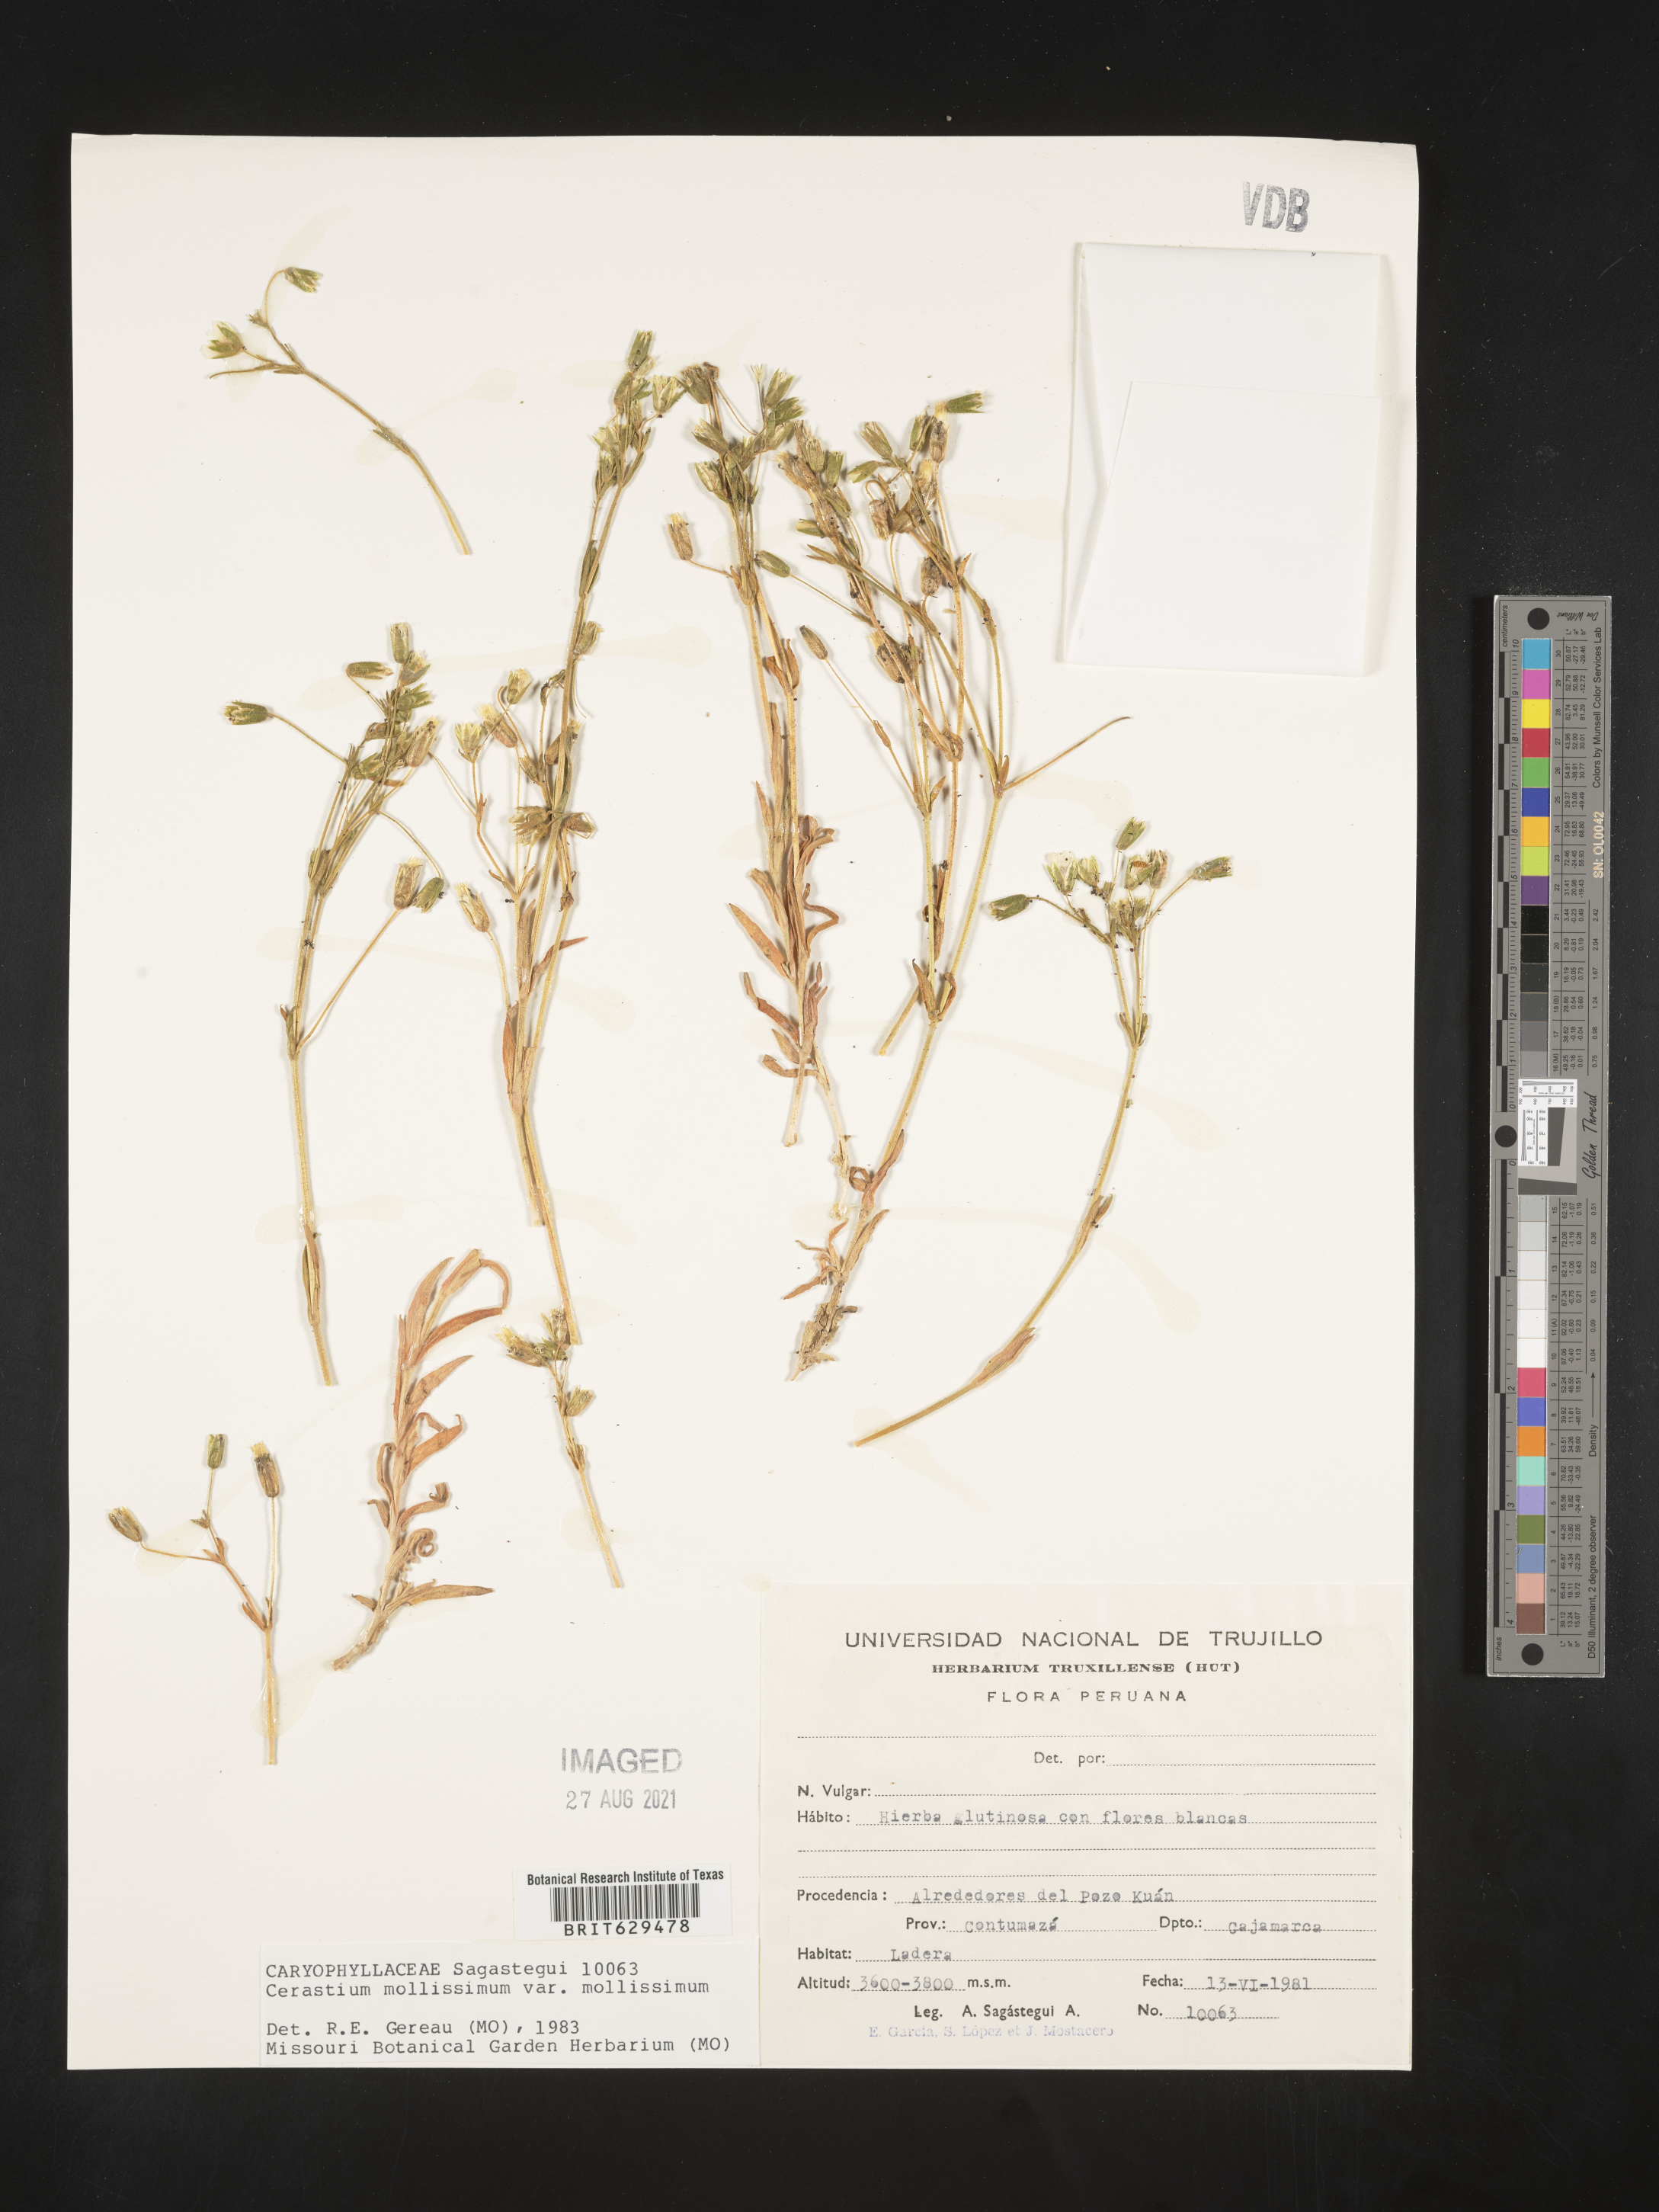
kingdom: Plantae
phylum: Tracheophyta
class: Magnoliopsida
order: Caryophyllales
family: Caryophyllaceae
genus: Cerastium
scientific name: Cerastium mollissimum
